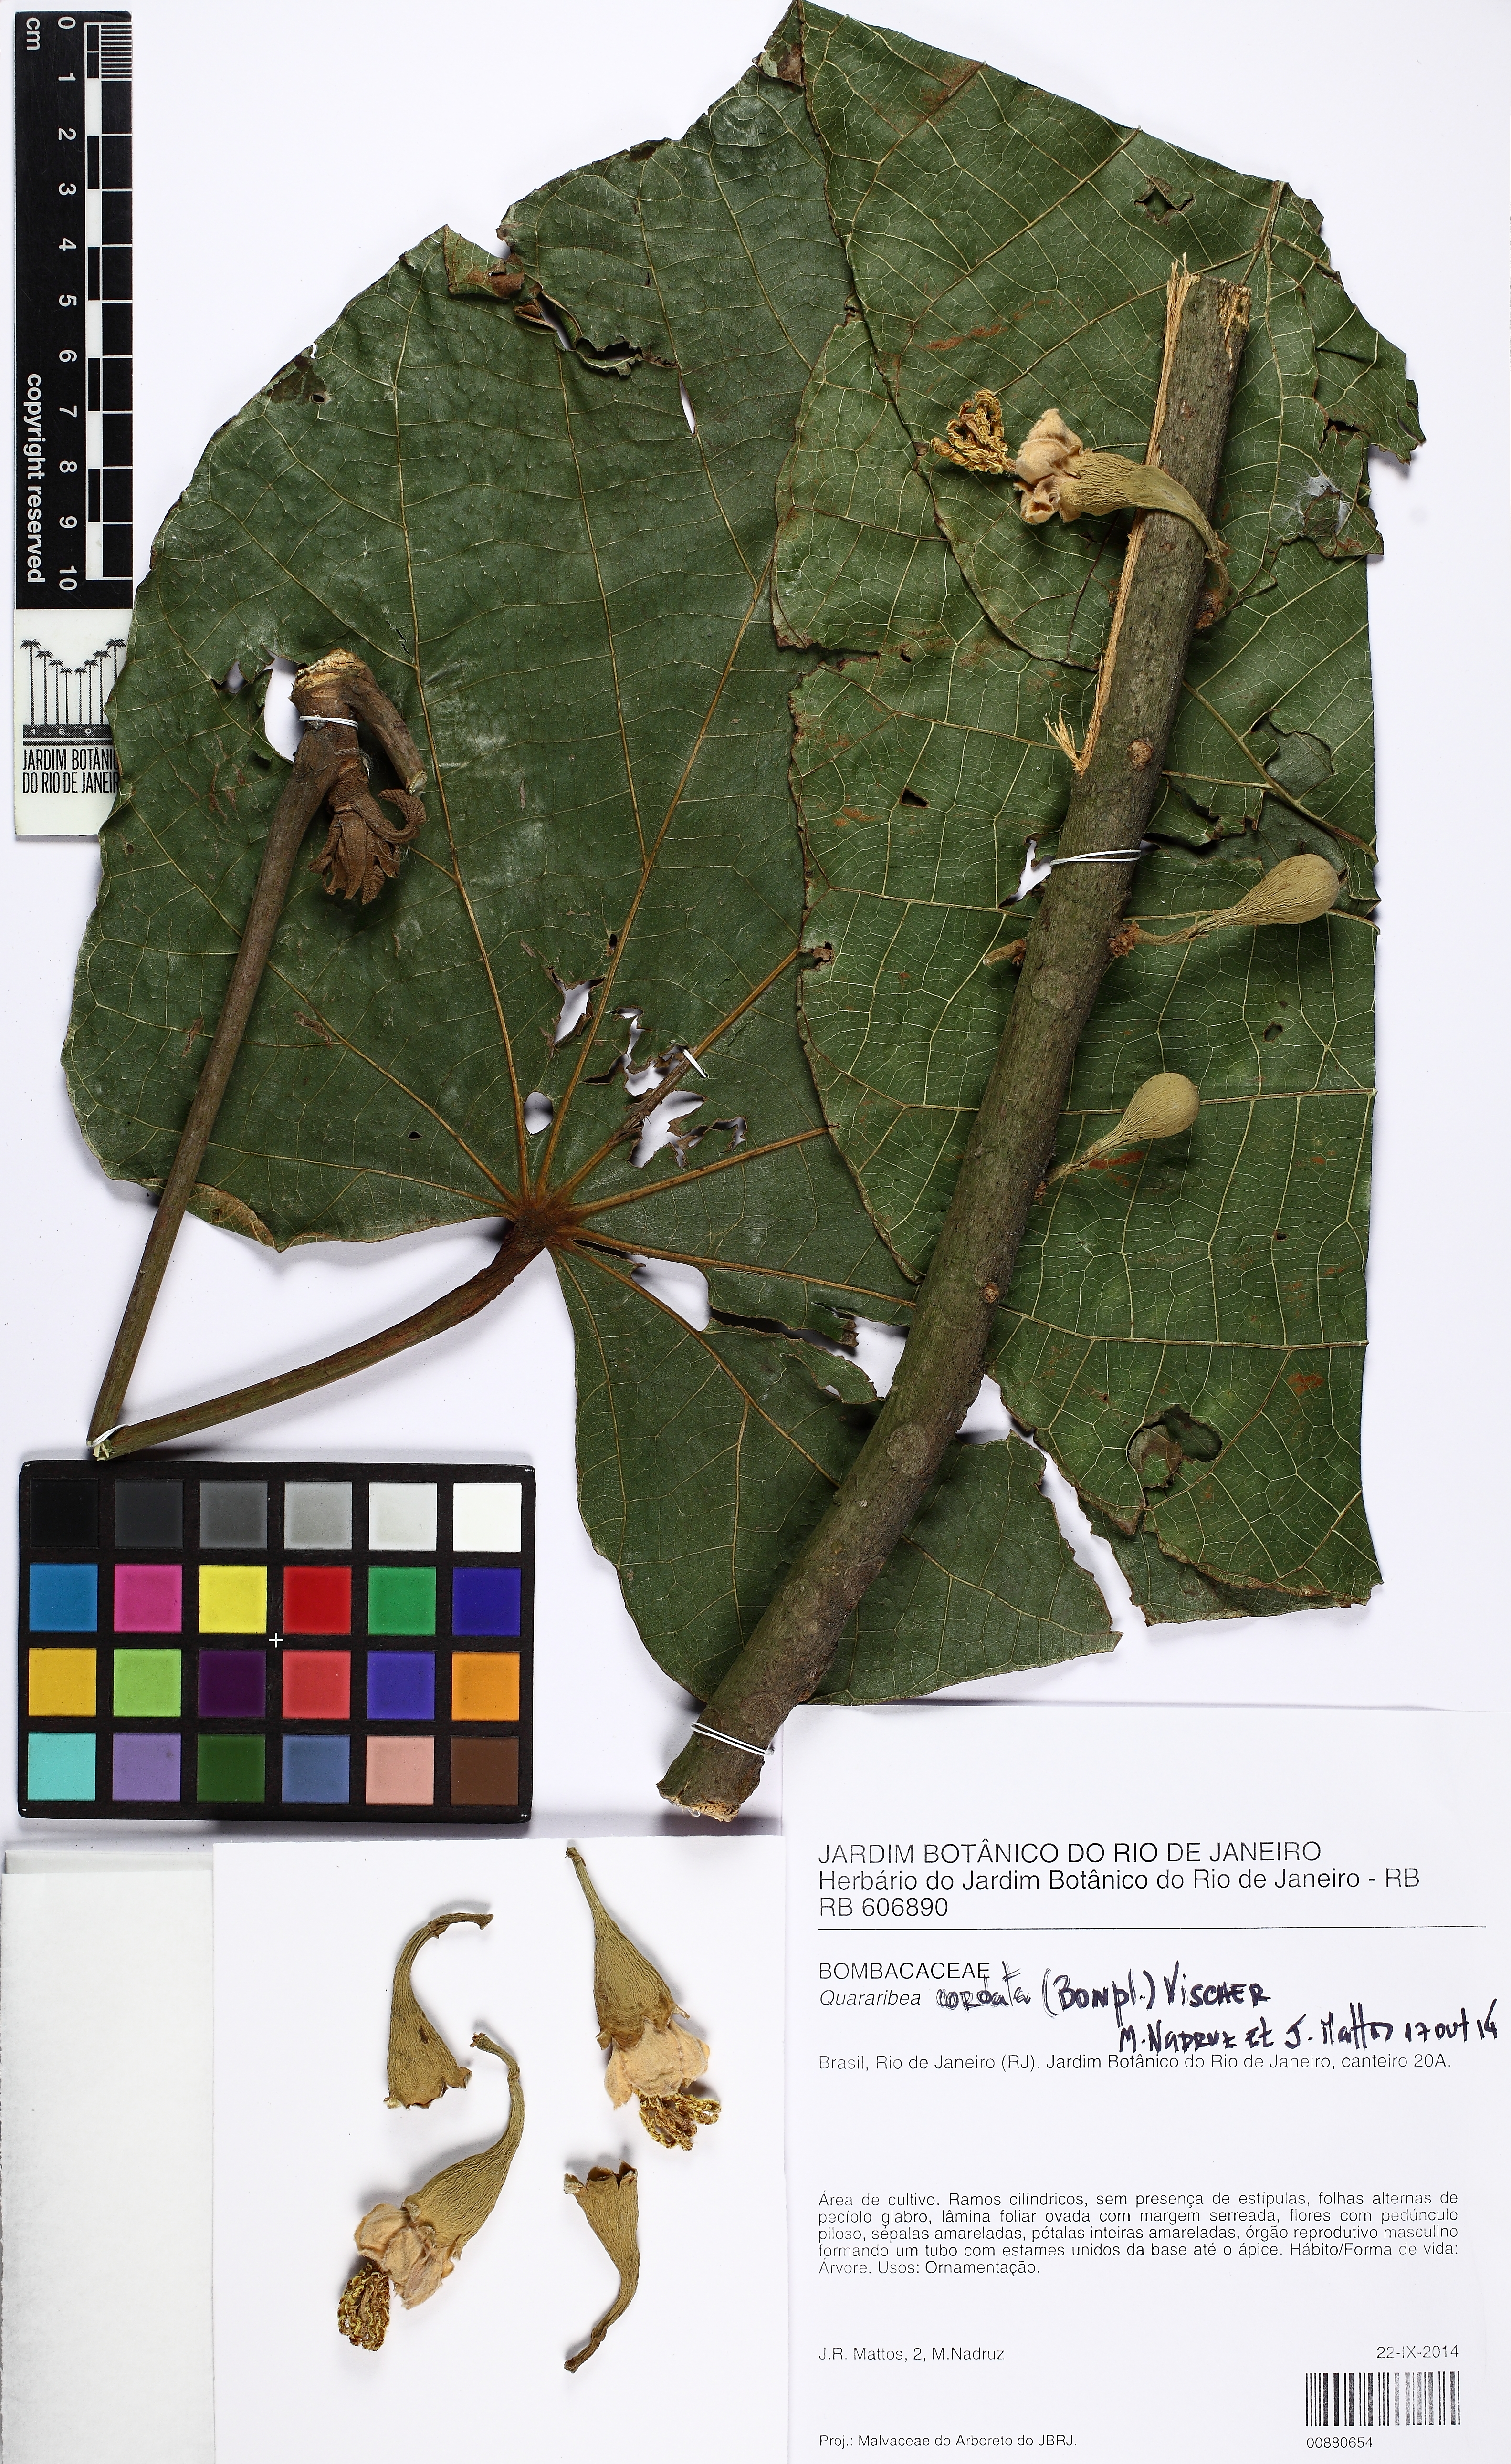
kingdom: Plantae
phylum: Tracheophyta
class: Magnoliopsida
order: Malvales
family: Malvaceae
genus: Matisia
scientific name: Matisia cordata
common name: South american sapote
